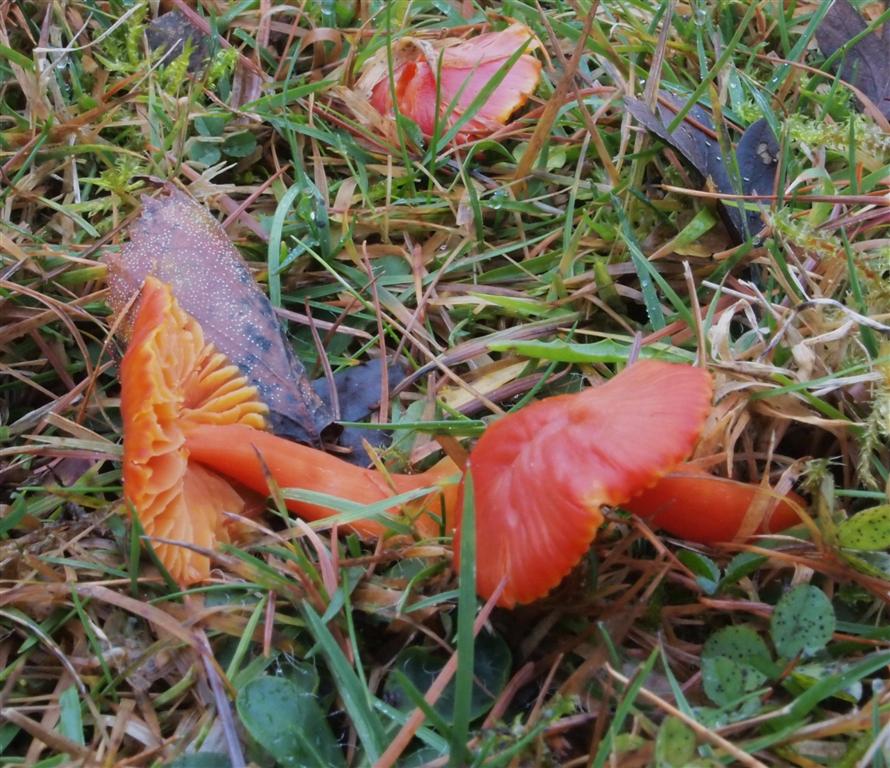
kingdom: Fungi
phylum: Basidiomycota
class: Agaricomycetes
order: Agaricales
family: Hygrophoraceae
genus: Hygrocybe
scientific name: Hygrocybe coccinea
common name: cinnober-vokshat
